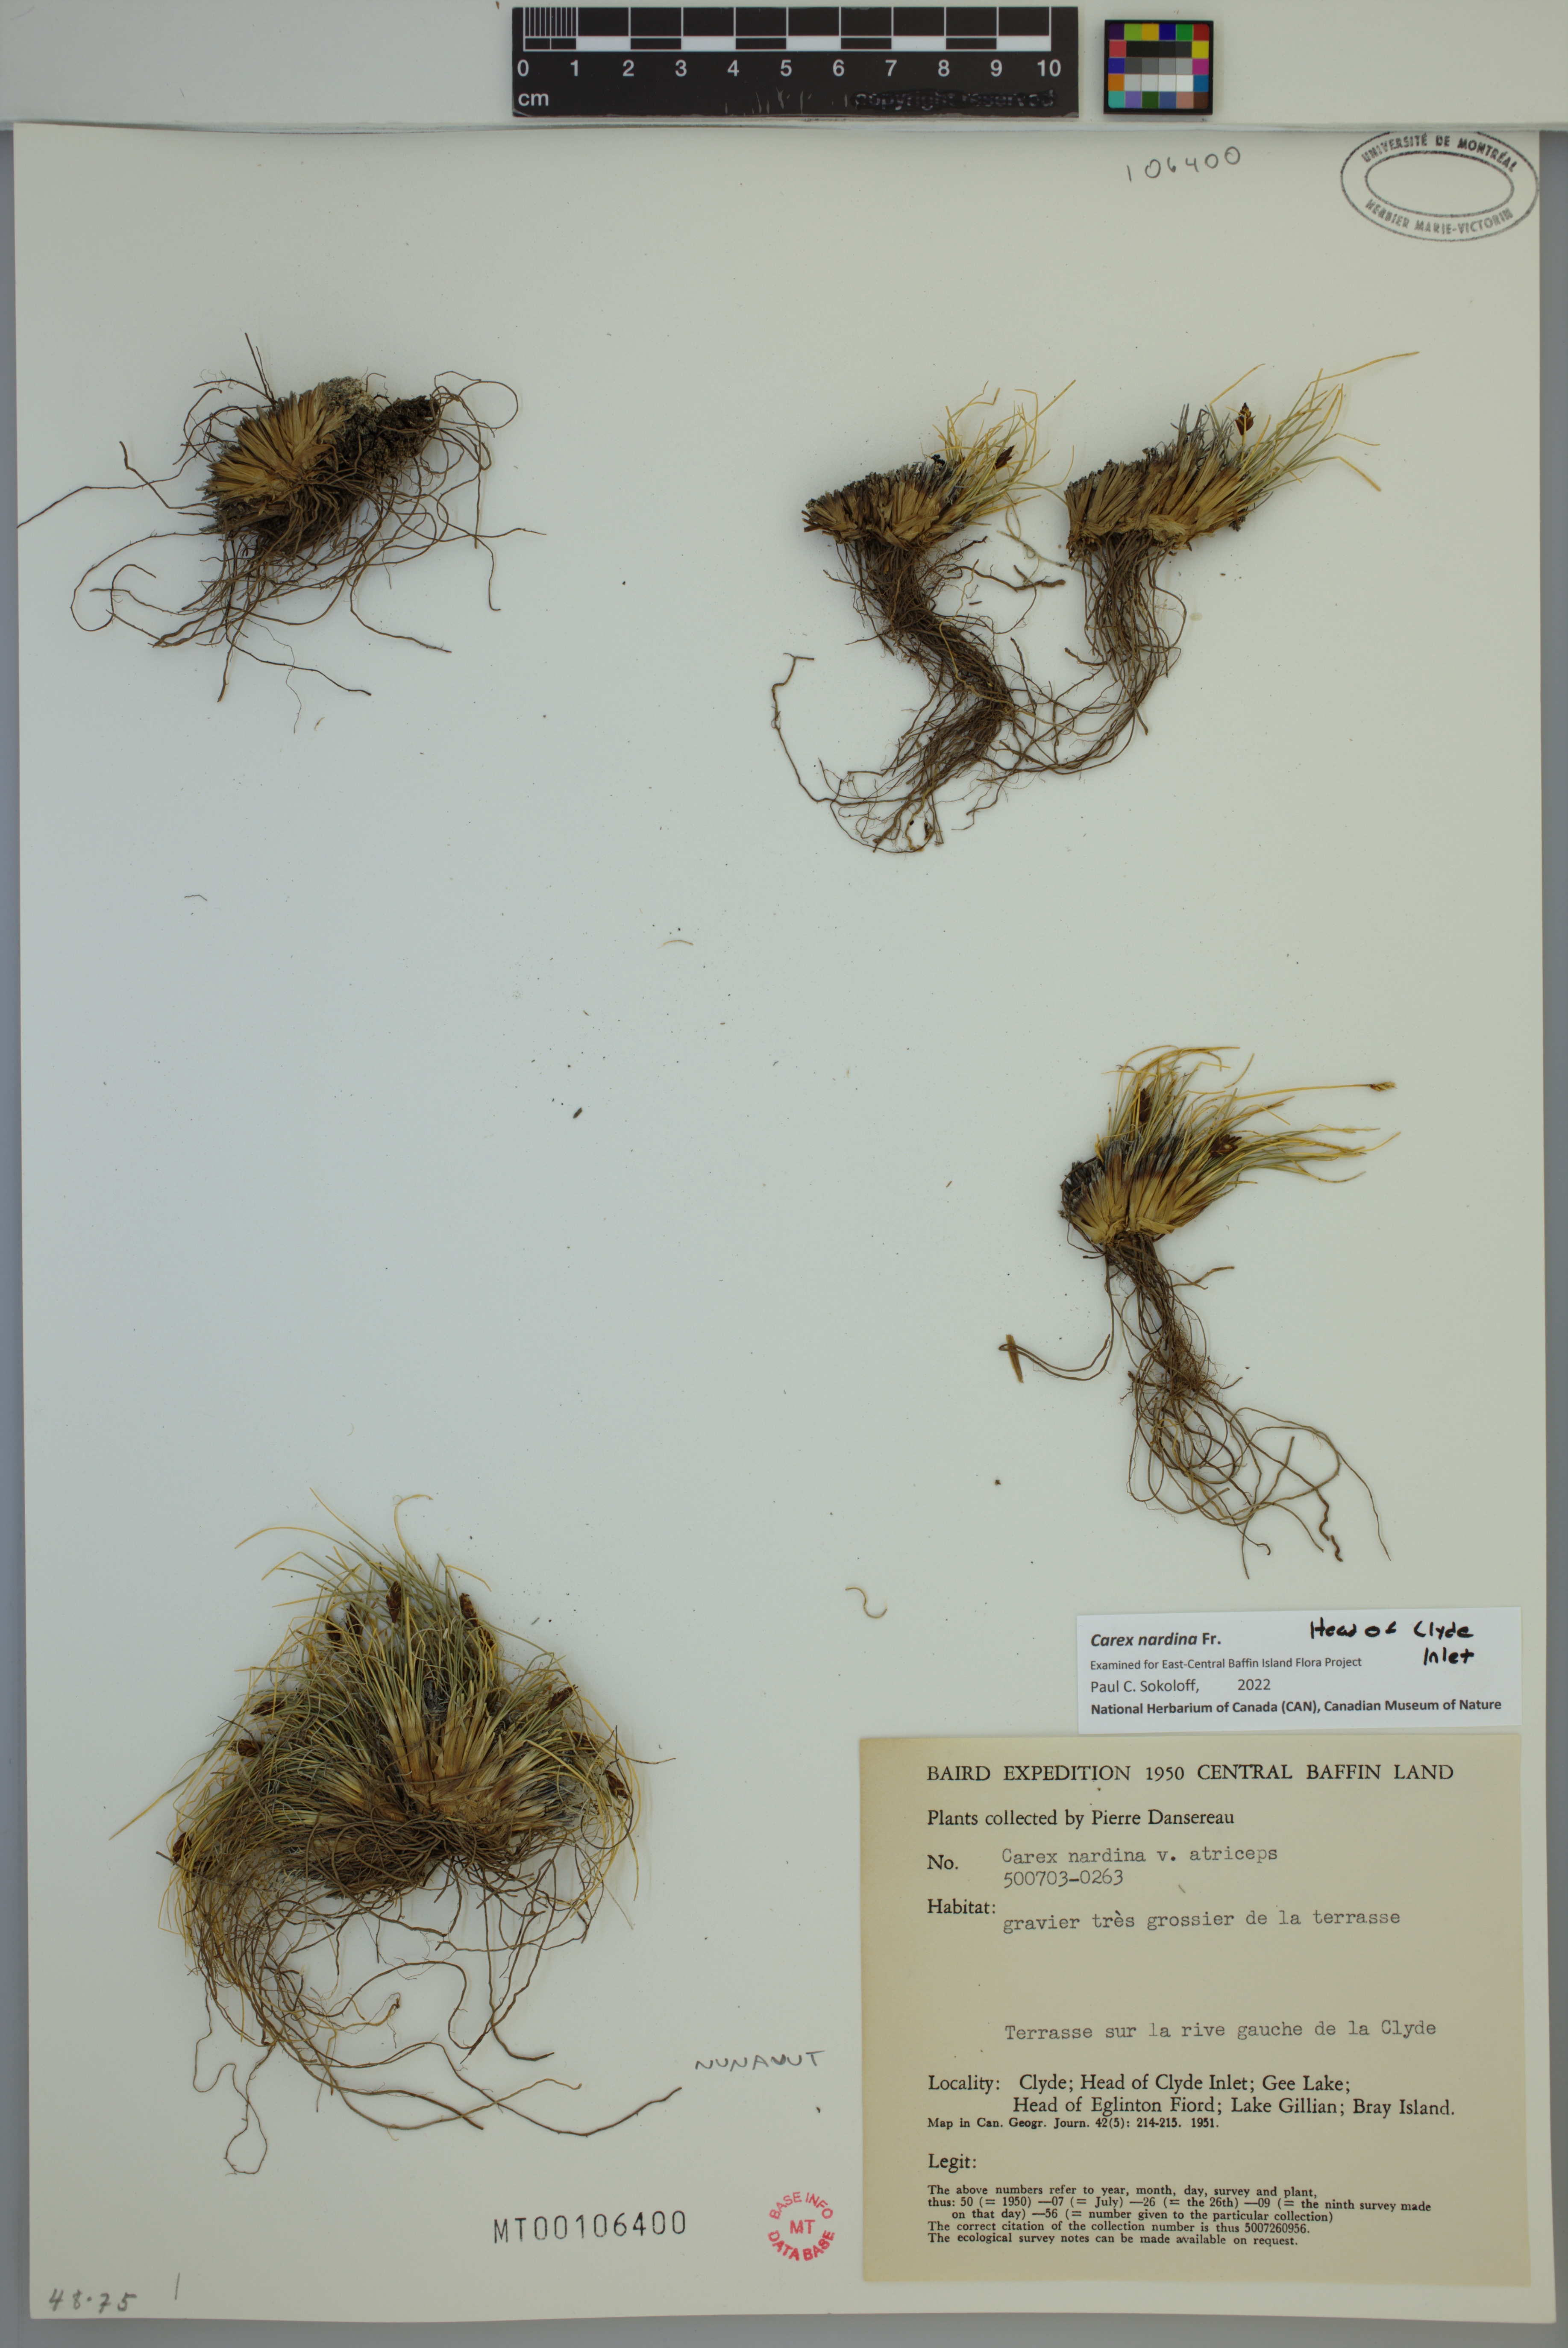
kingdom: Plantae
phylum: Tracheophyta
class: Liliopsida
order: Poales
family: Cyperaceae
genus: Carex
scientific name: Carex nardina
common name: Nard sedge
